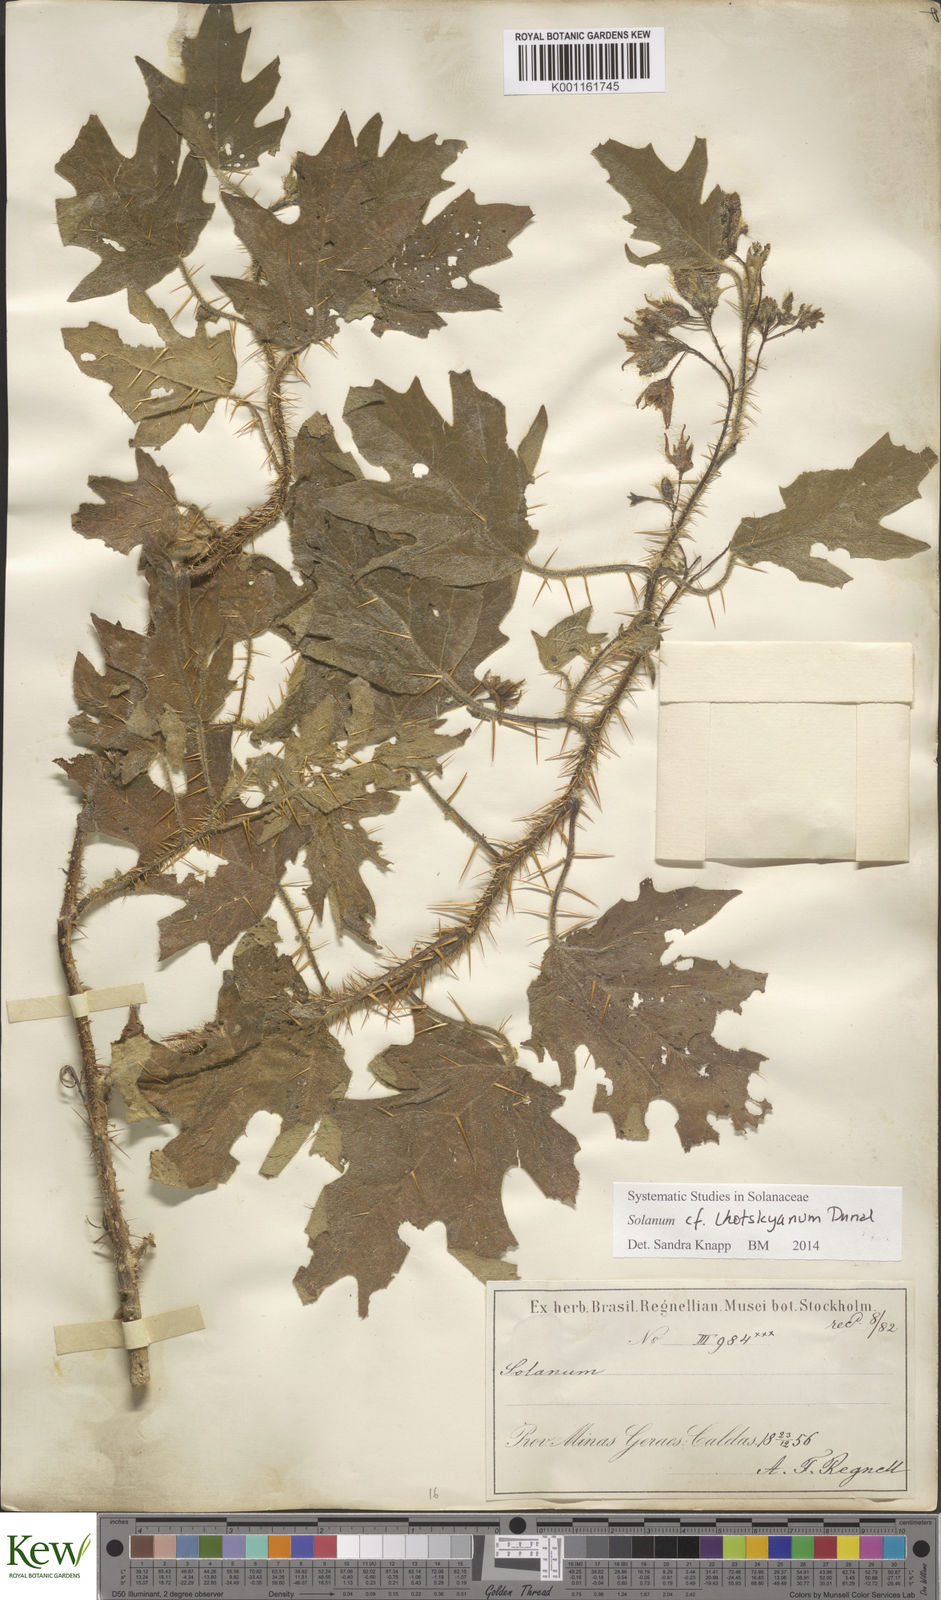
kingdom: Plantae
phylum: Tracheophyta
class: Magnoliopsida
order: Solanales
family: Solanaceae
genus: Solanum
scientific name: Solanum lhotskyanum
